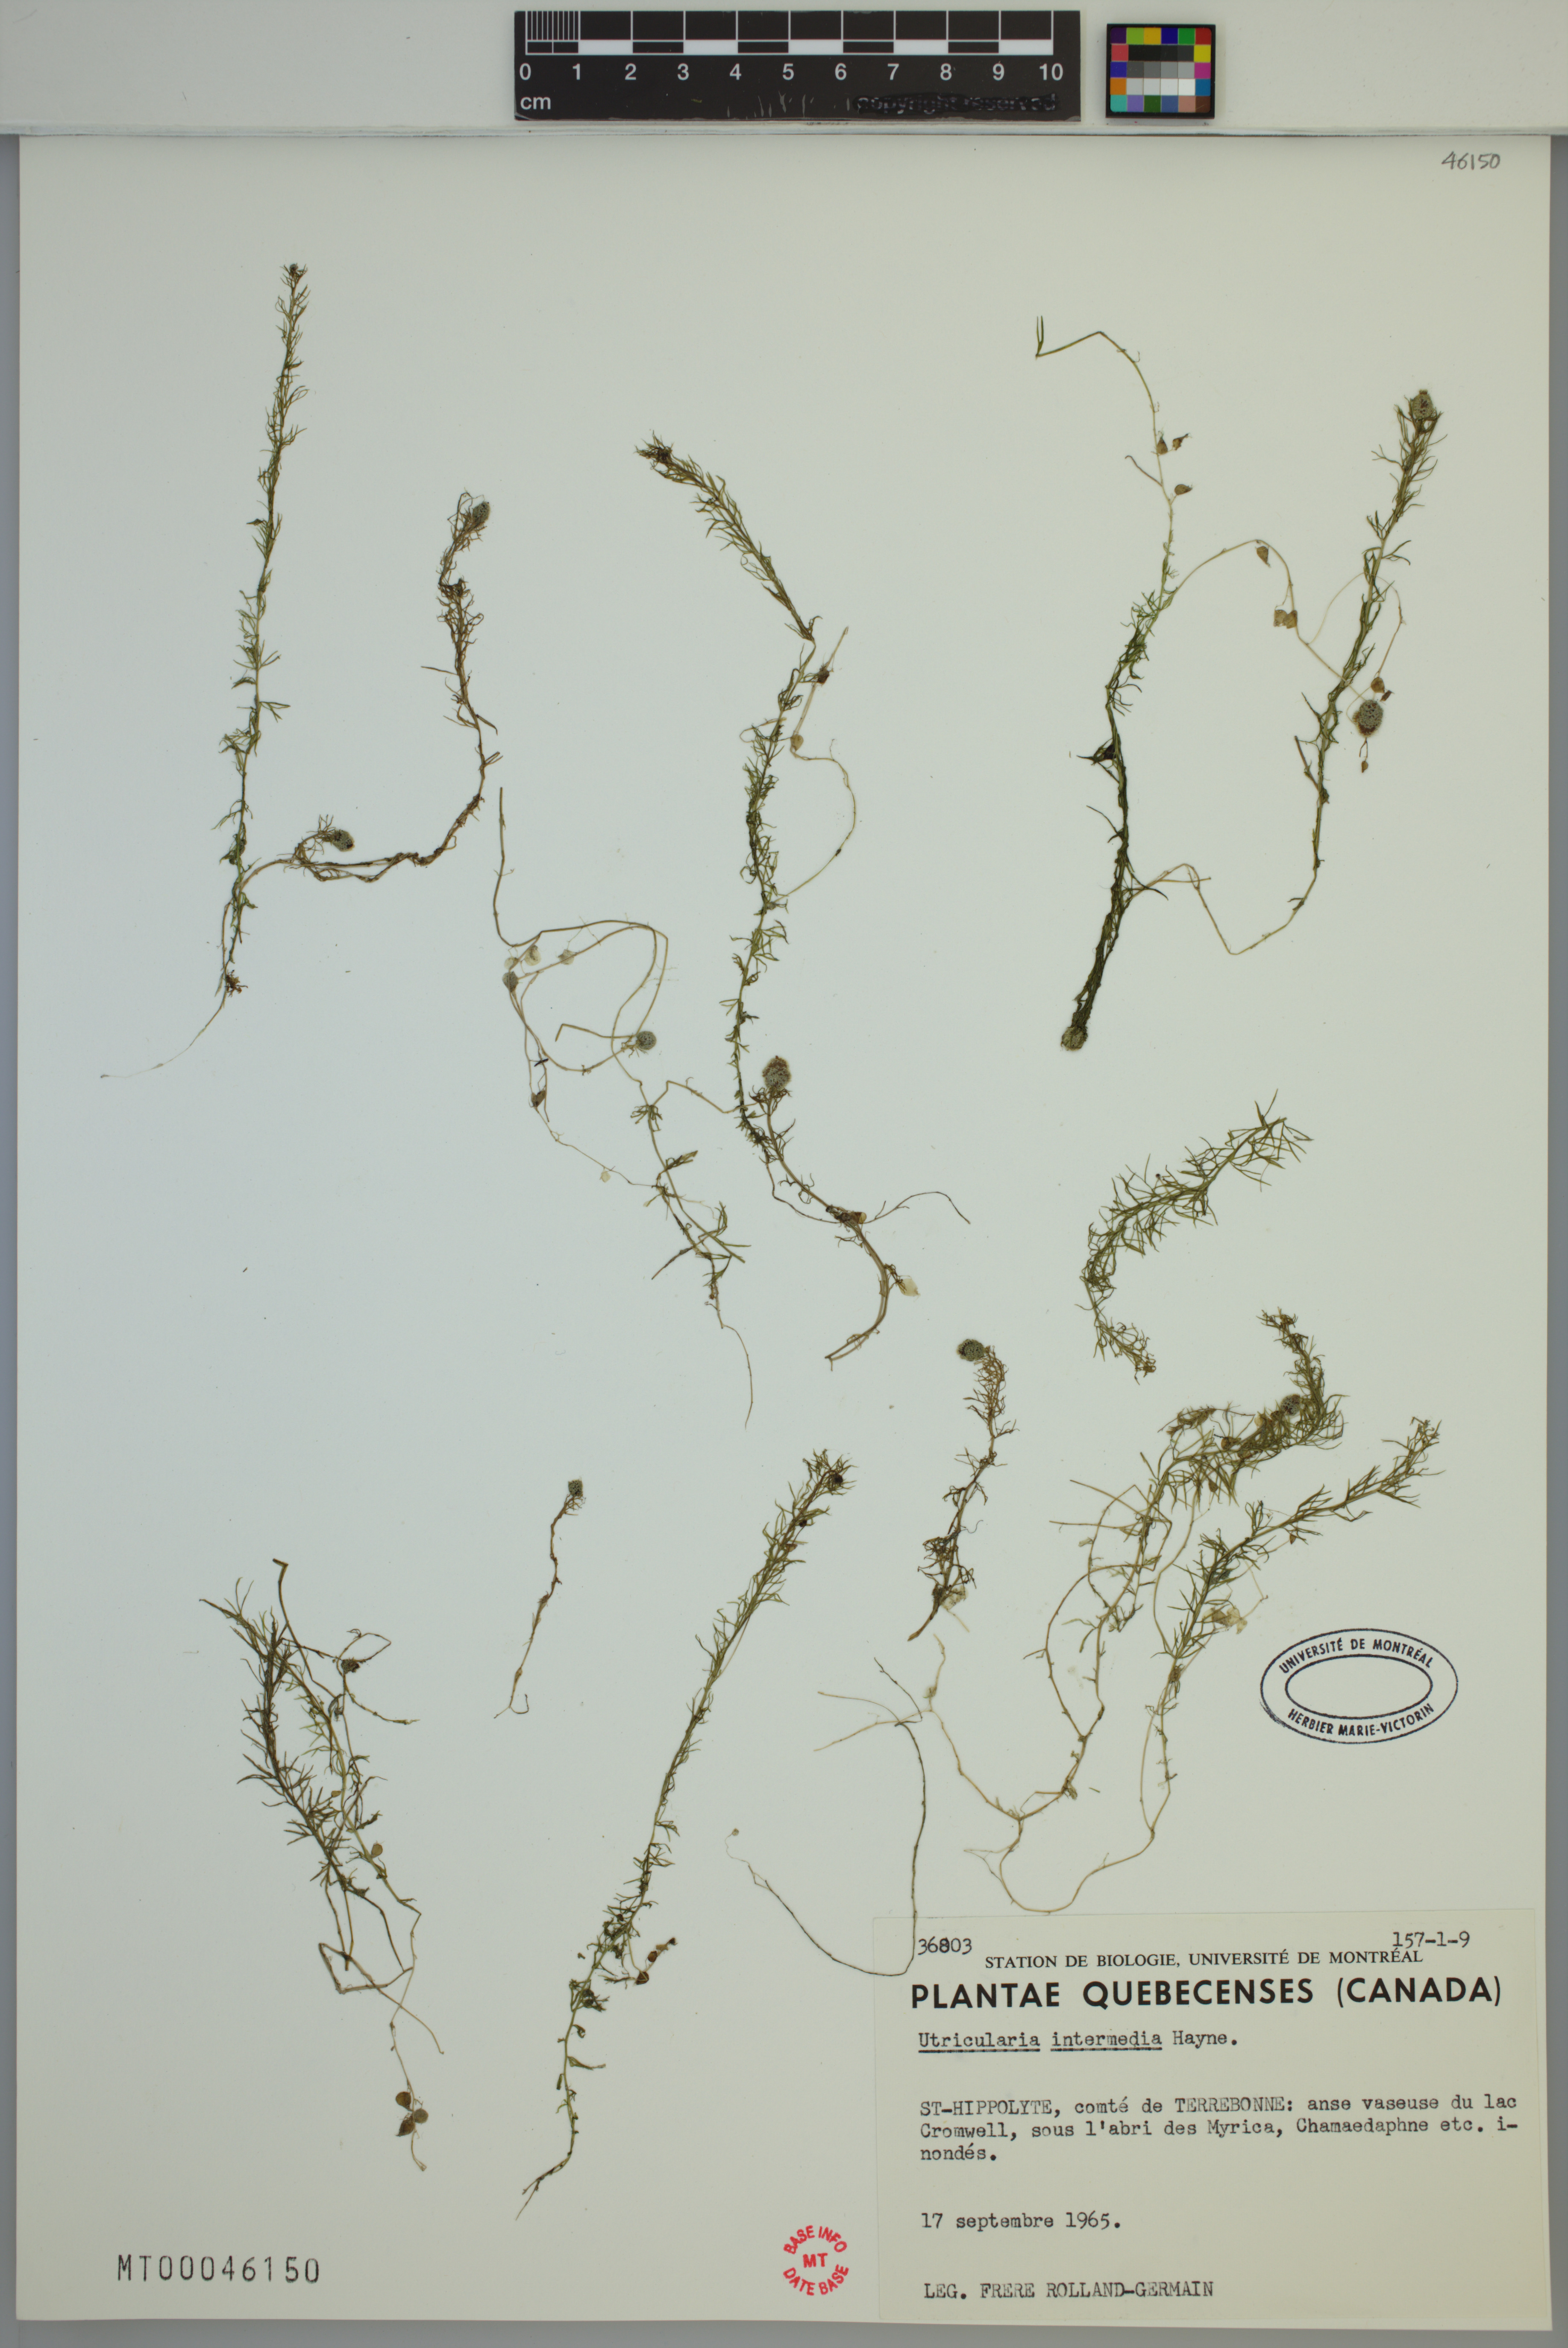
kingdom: Plantae
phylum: Tracheophyta
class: Magnoliopsida
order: Lamiales
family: Lentibulariaceae
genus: Utricularia
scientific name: Utricularia intermedia
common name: Intermediate bladderwort
